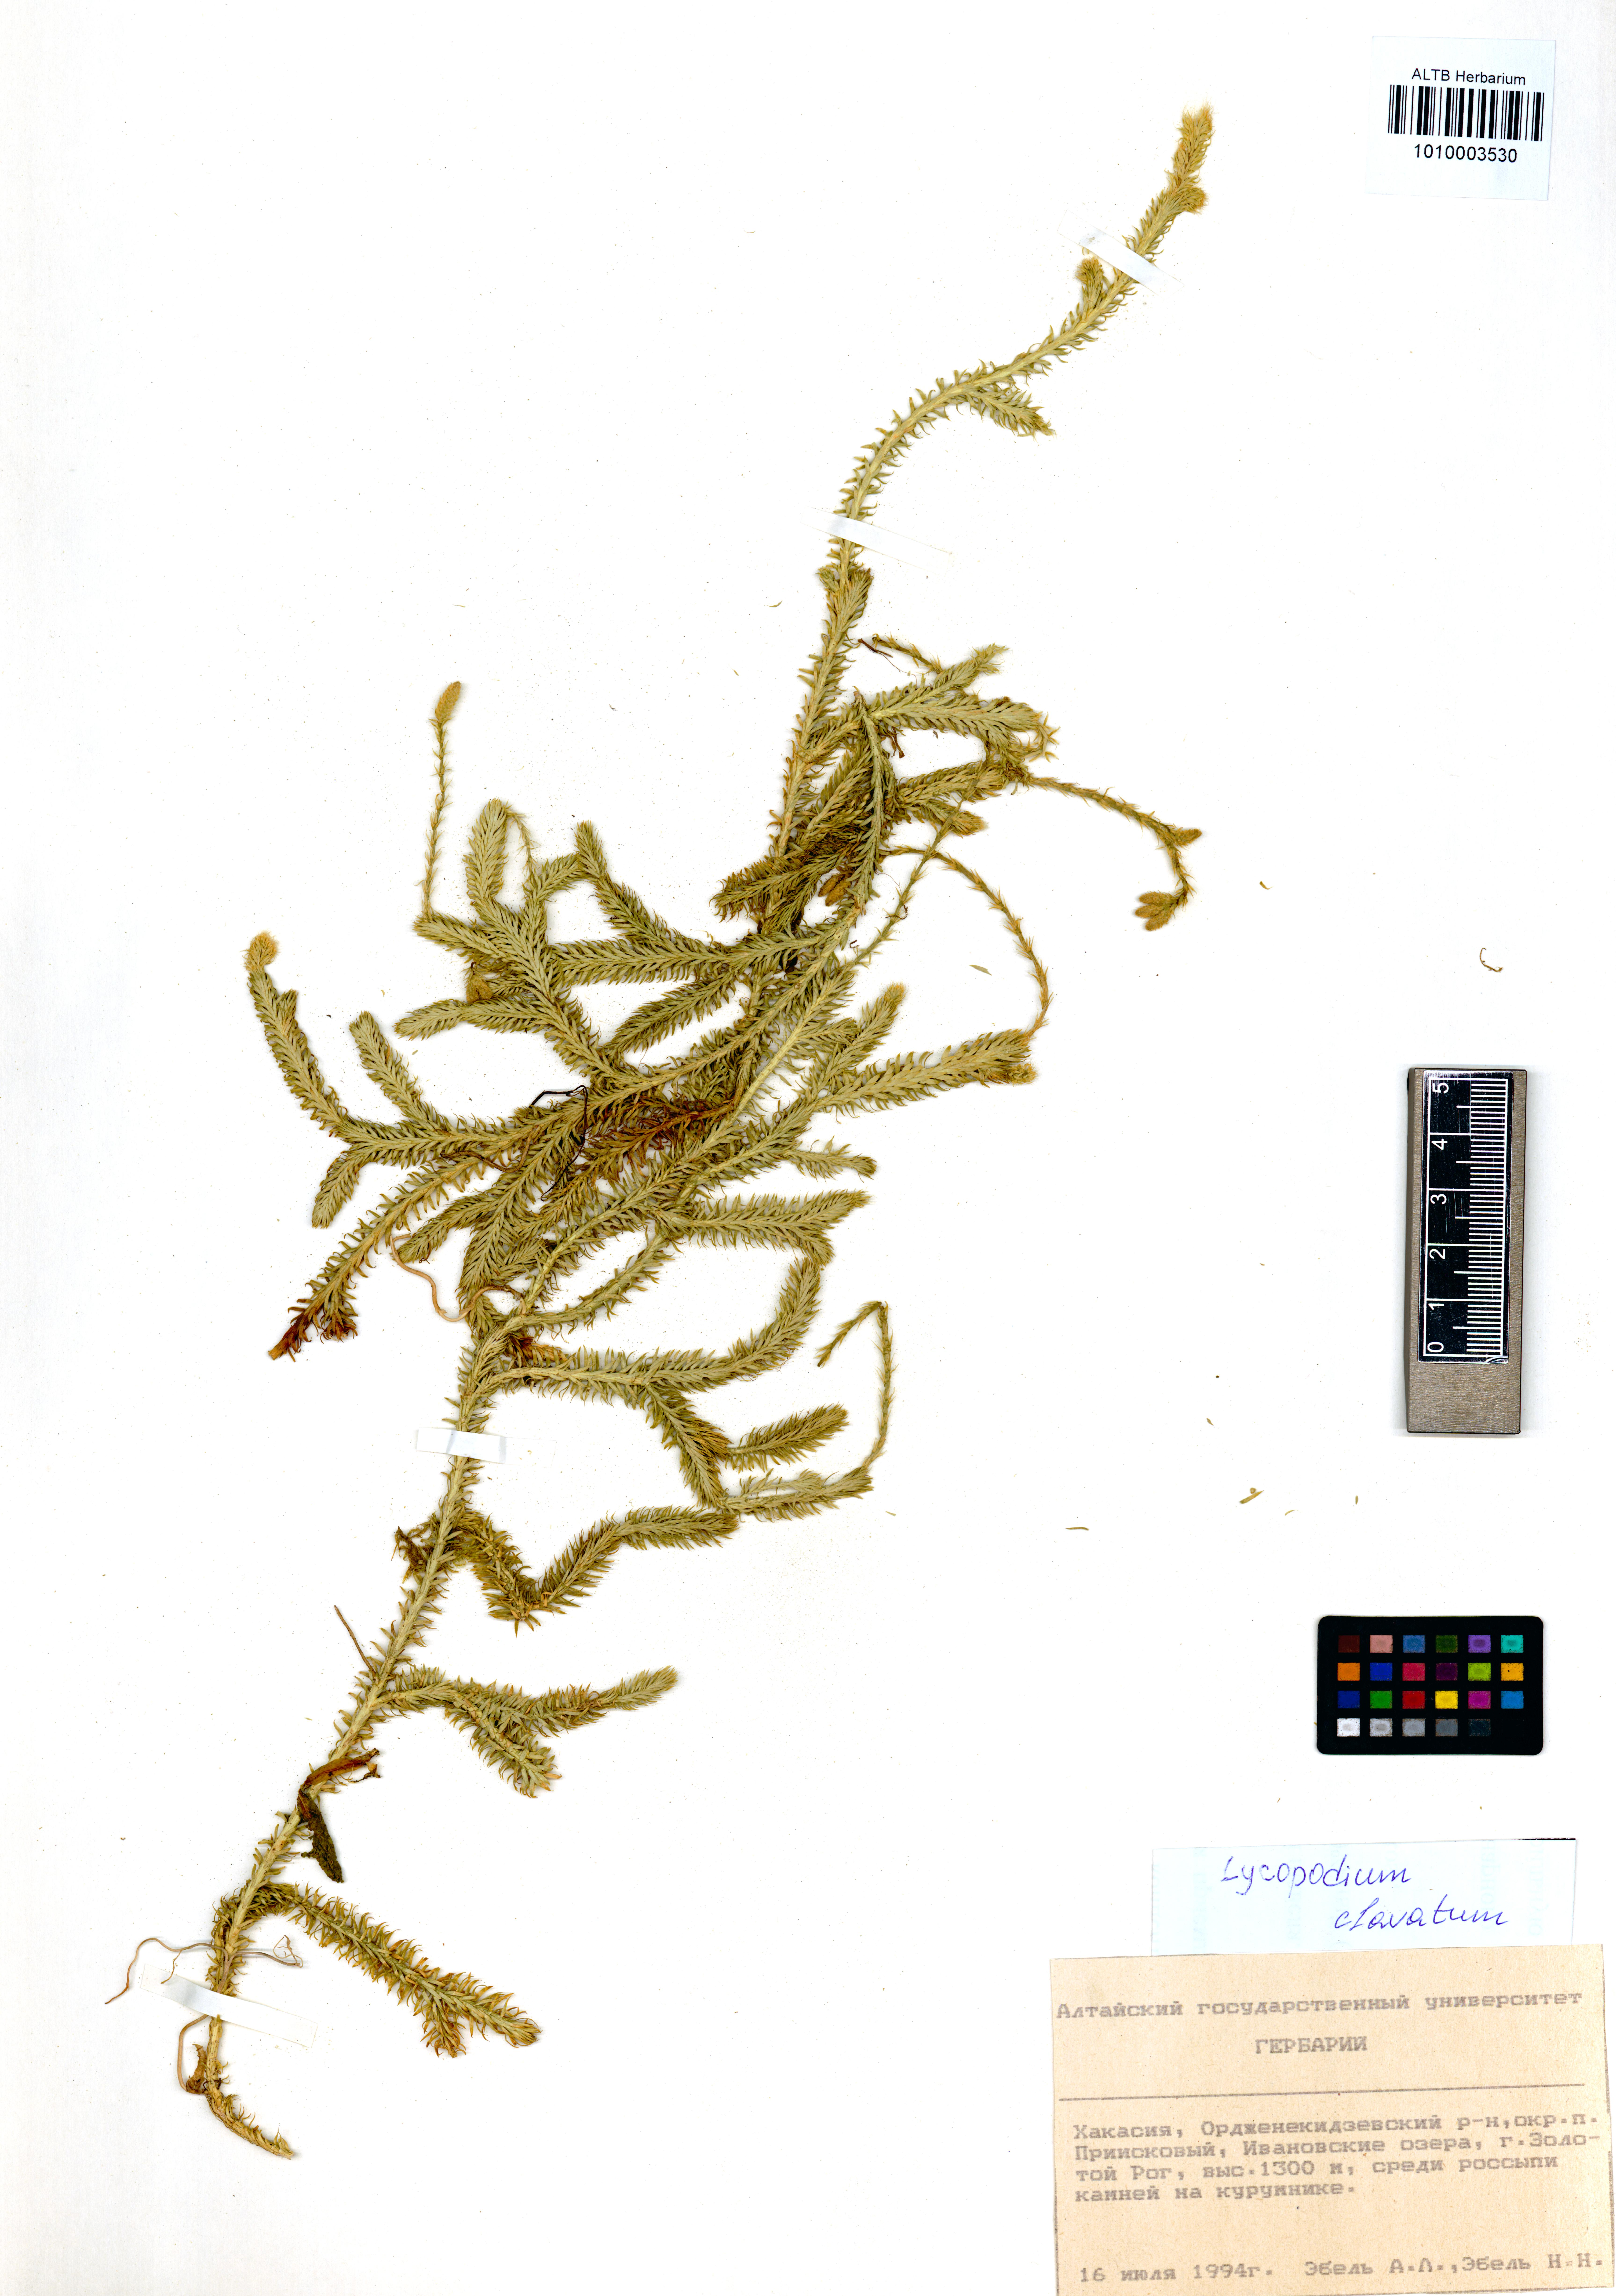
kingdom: Plantae
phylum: Tracheophyta
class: Lycopodiopsida
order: Lycopodiales
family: Lycopodiaceae
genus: Lycopodium
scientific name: Lycopodium clavatum
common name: Stag's-horn clubmoss
